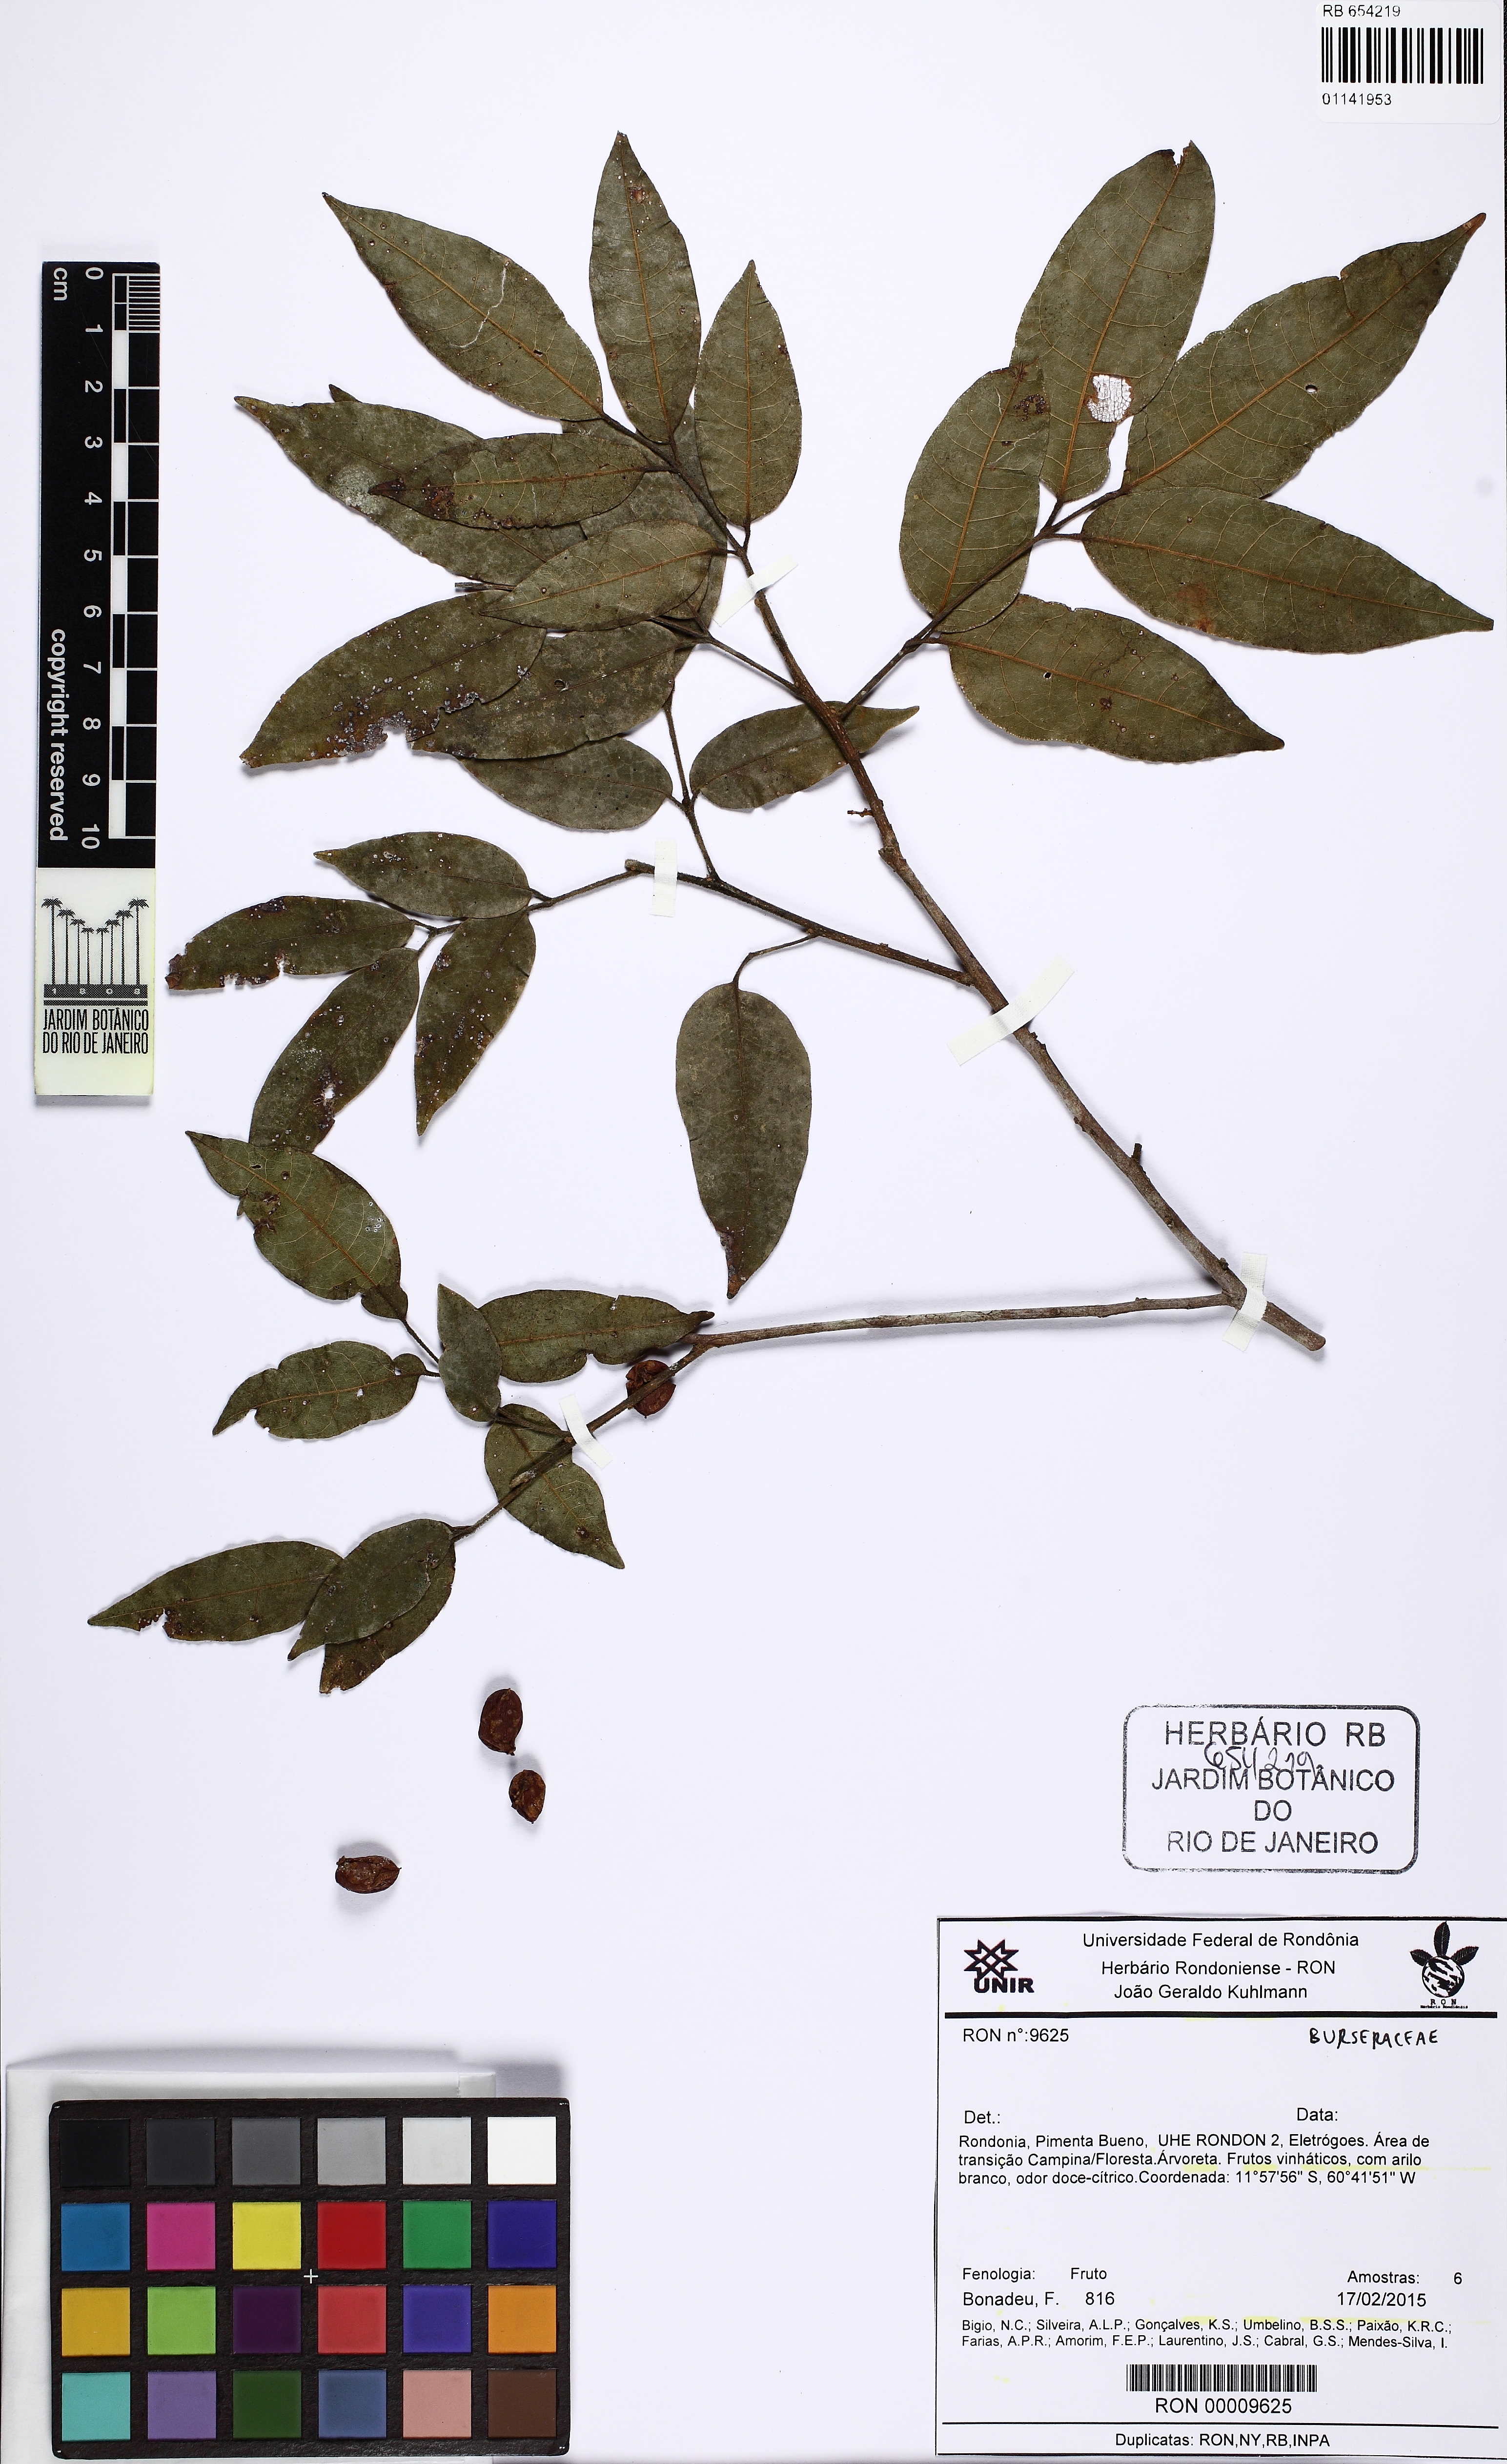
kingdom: Plantae
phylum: Tracheophyta
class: Magnoliopsida
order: Sapindales
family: Burseraceae
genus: Protium
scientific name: Protium pilosissimum
